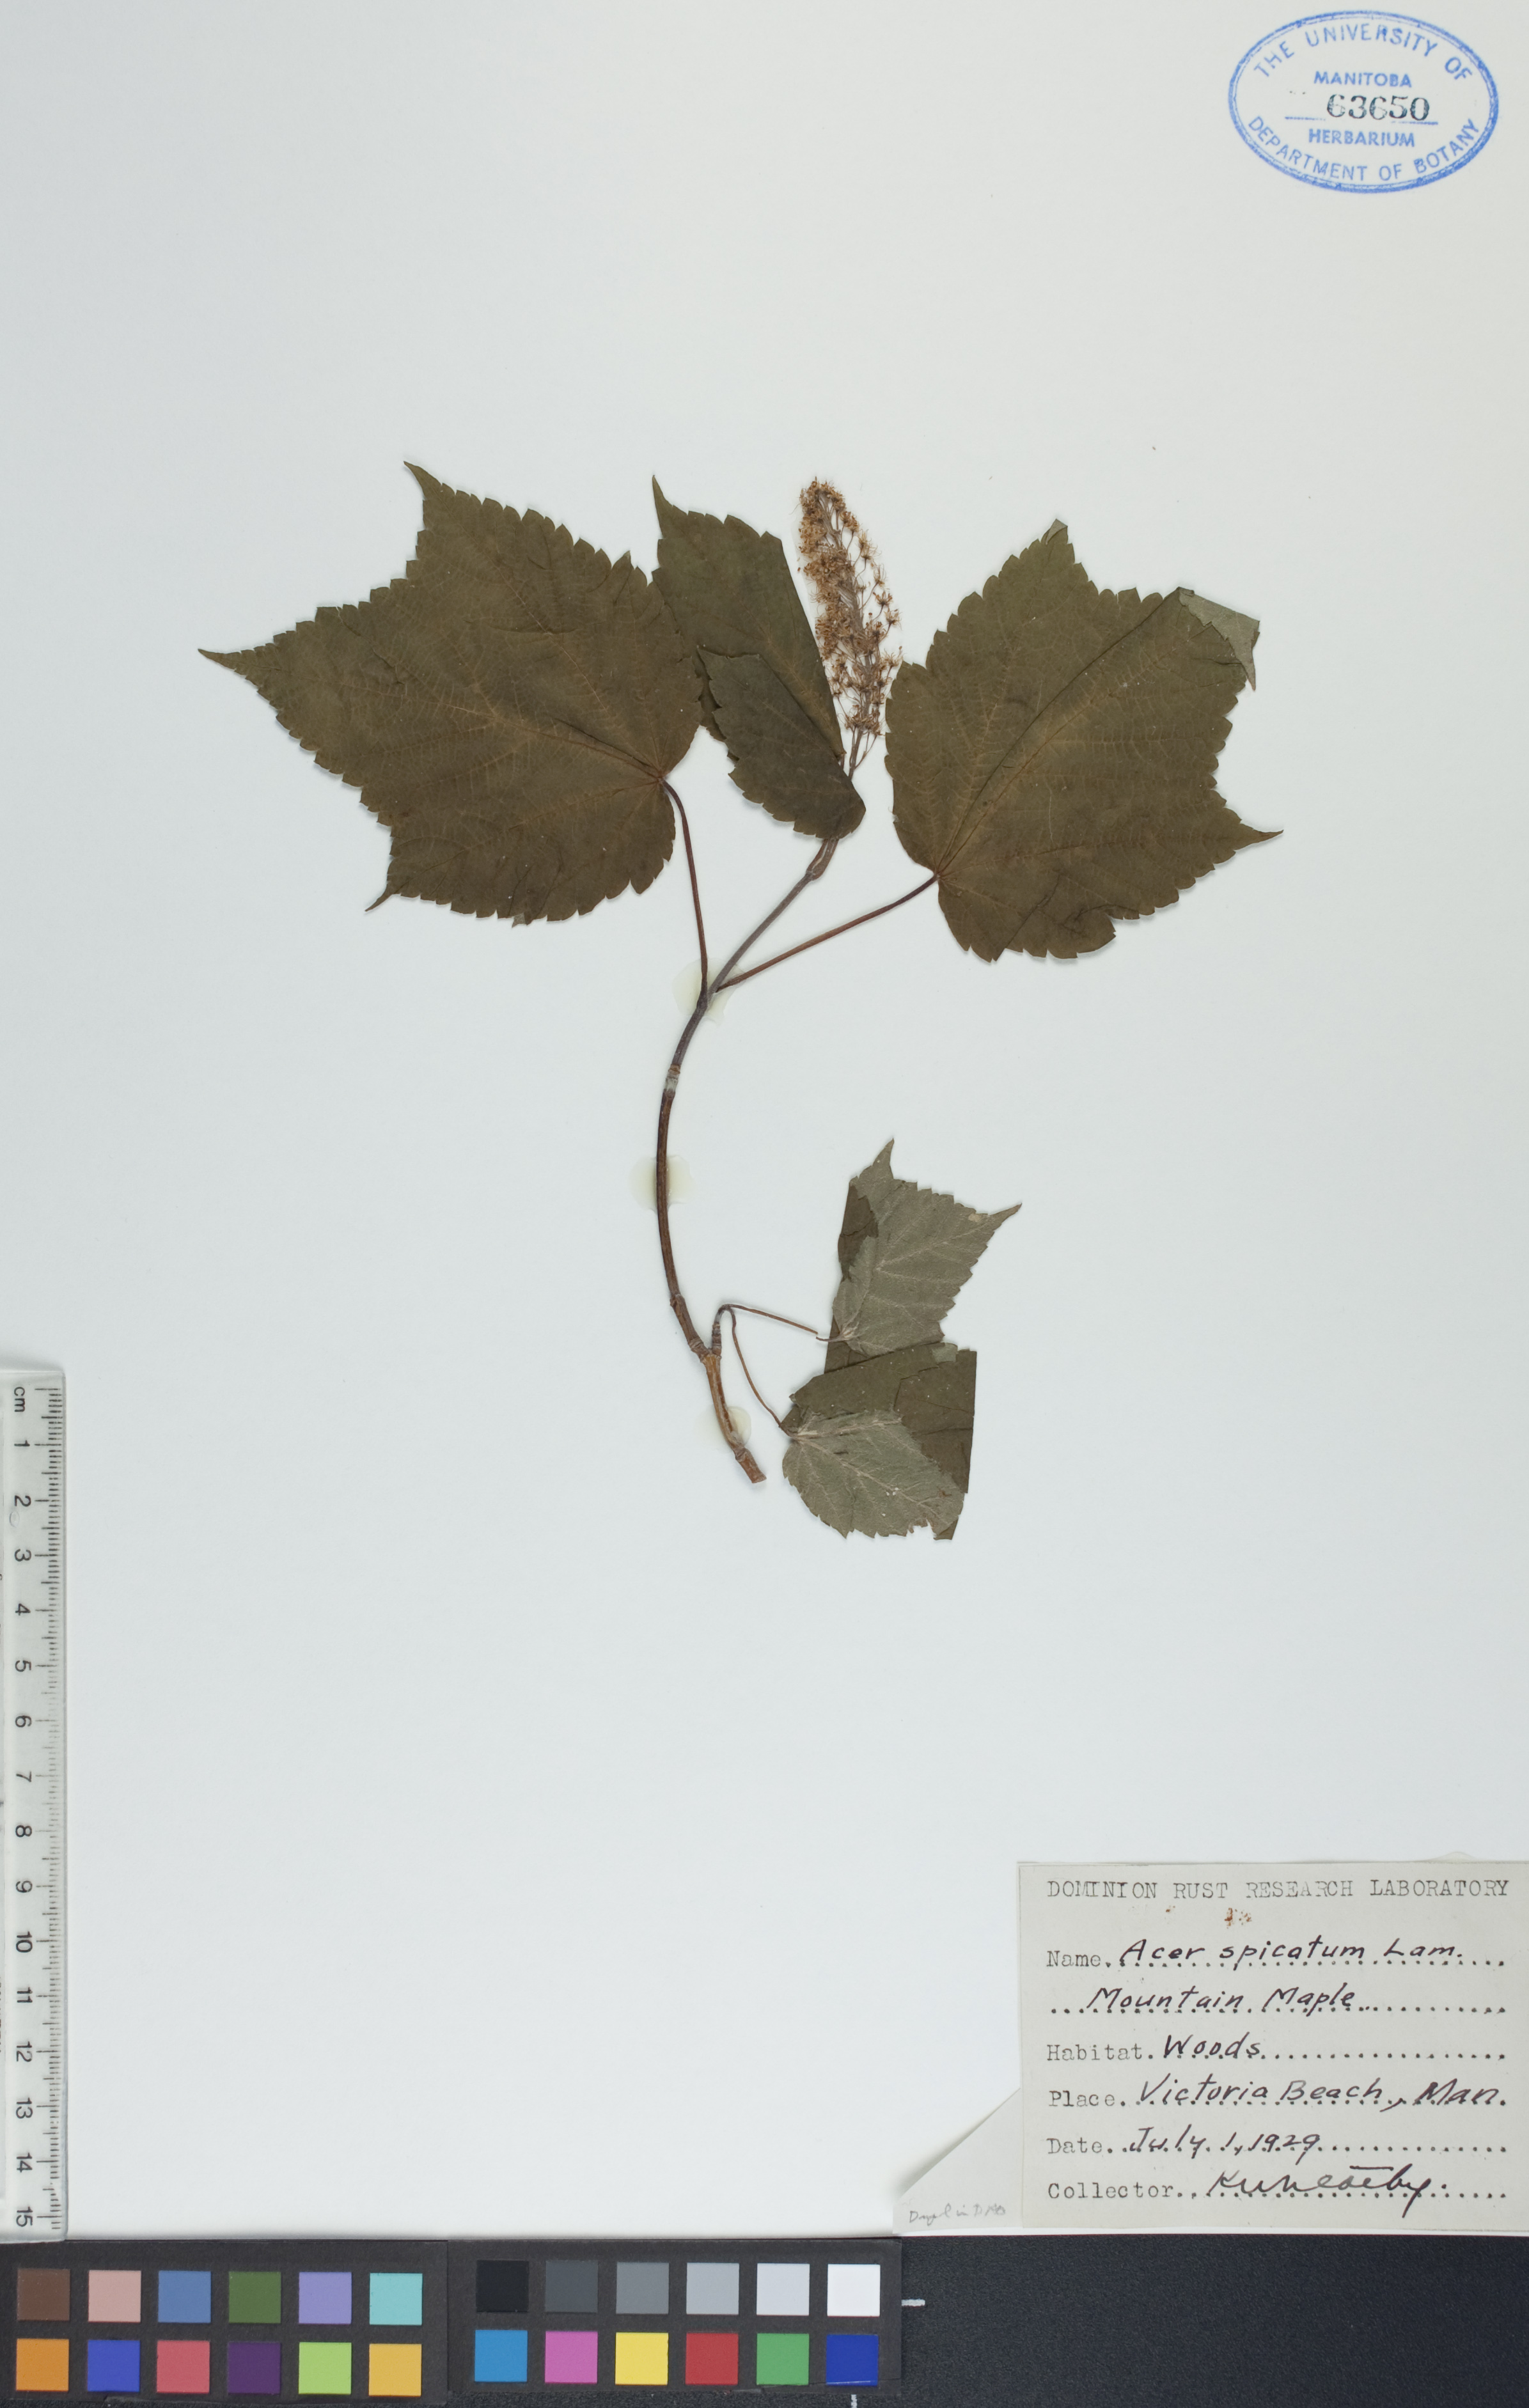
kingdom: Plantae
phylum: Tracheophyta
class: Magnoliopsida
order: Sapindales
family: Sapindaceae
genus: Acer
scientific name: Acer spicatum
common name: Mountain maple
